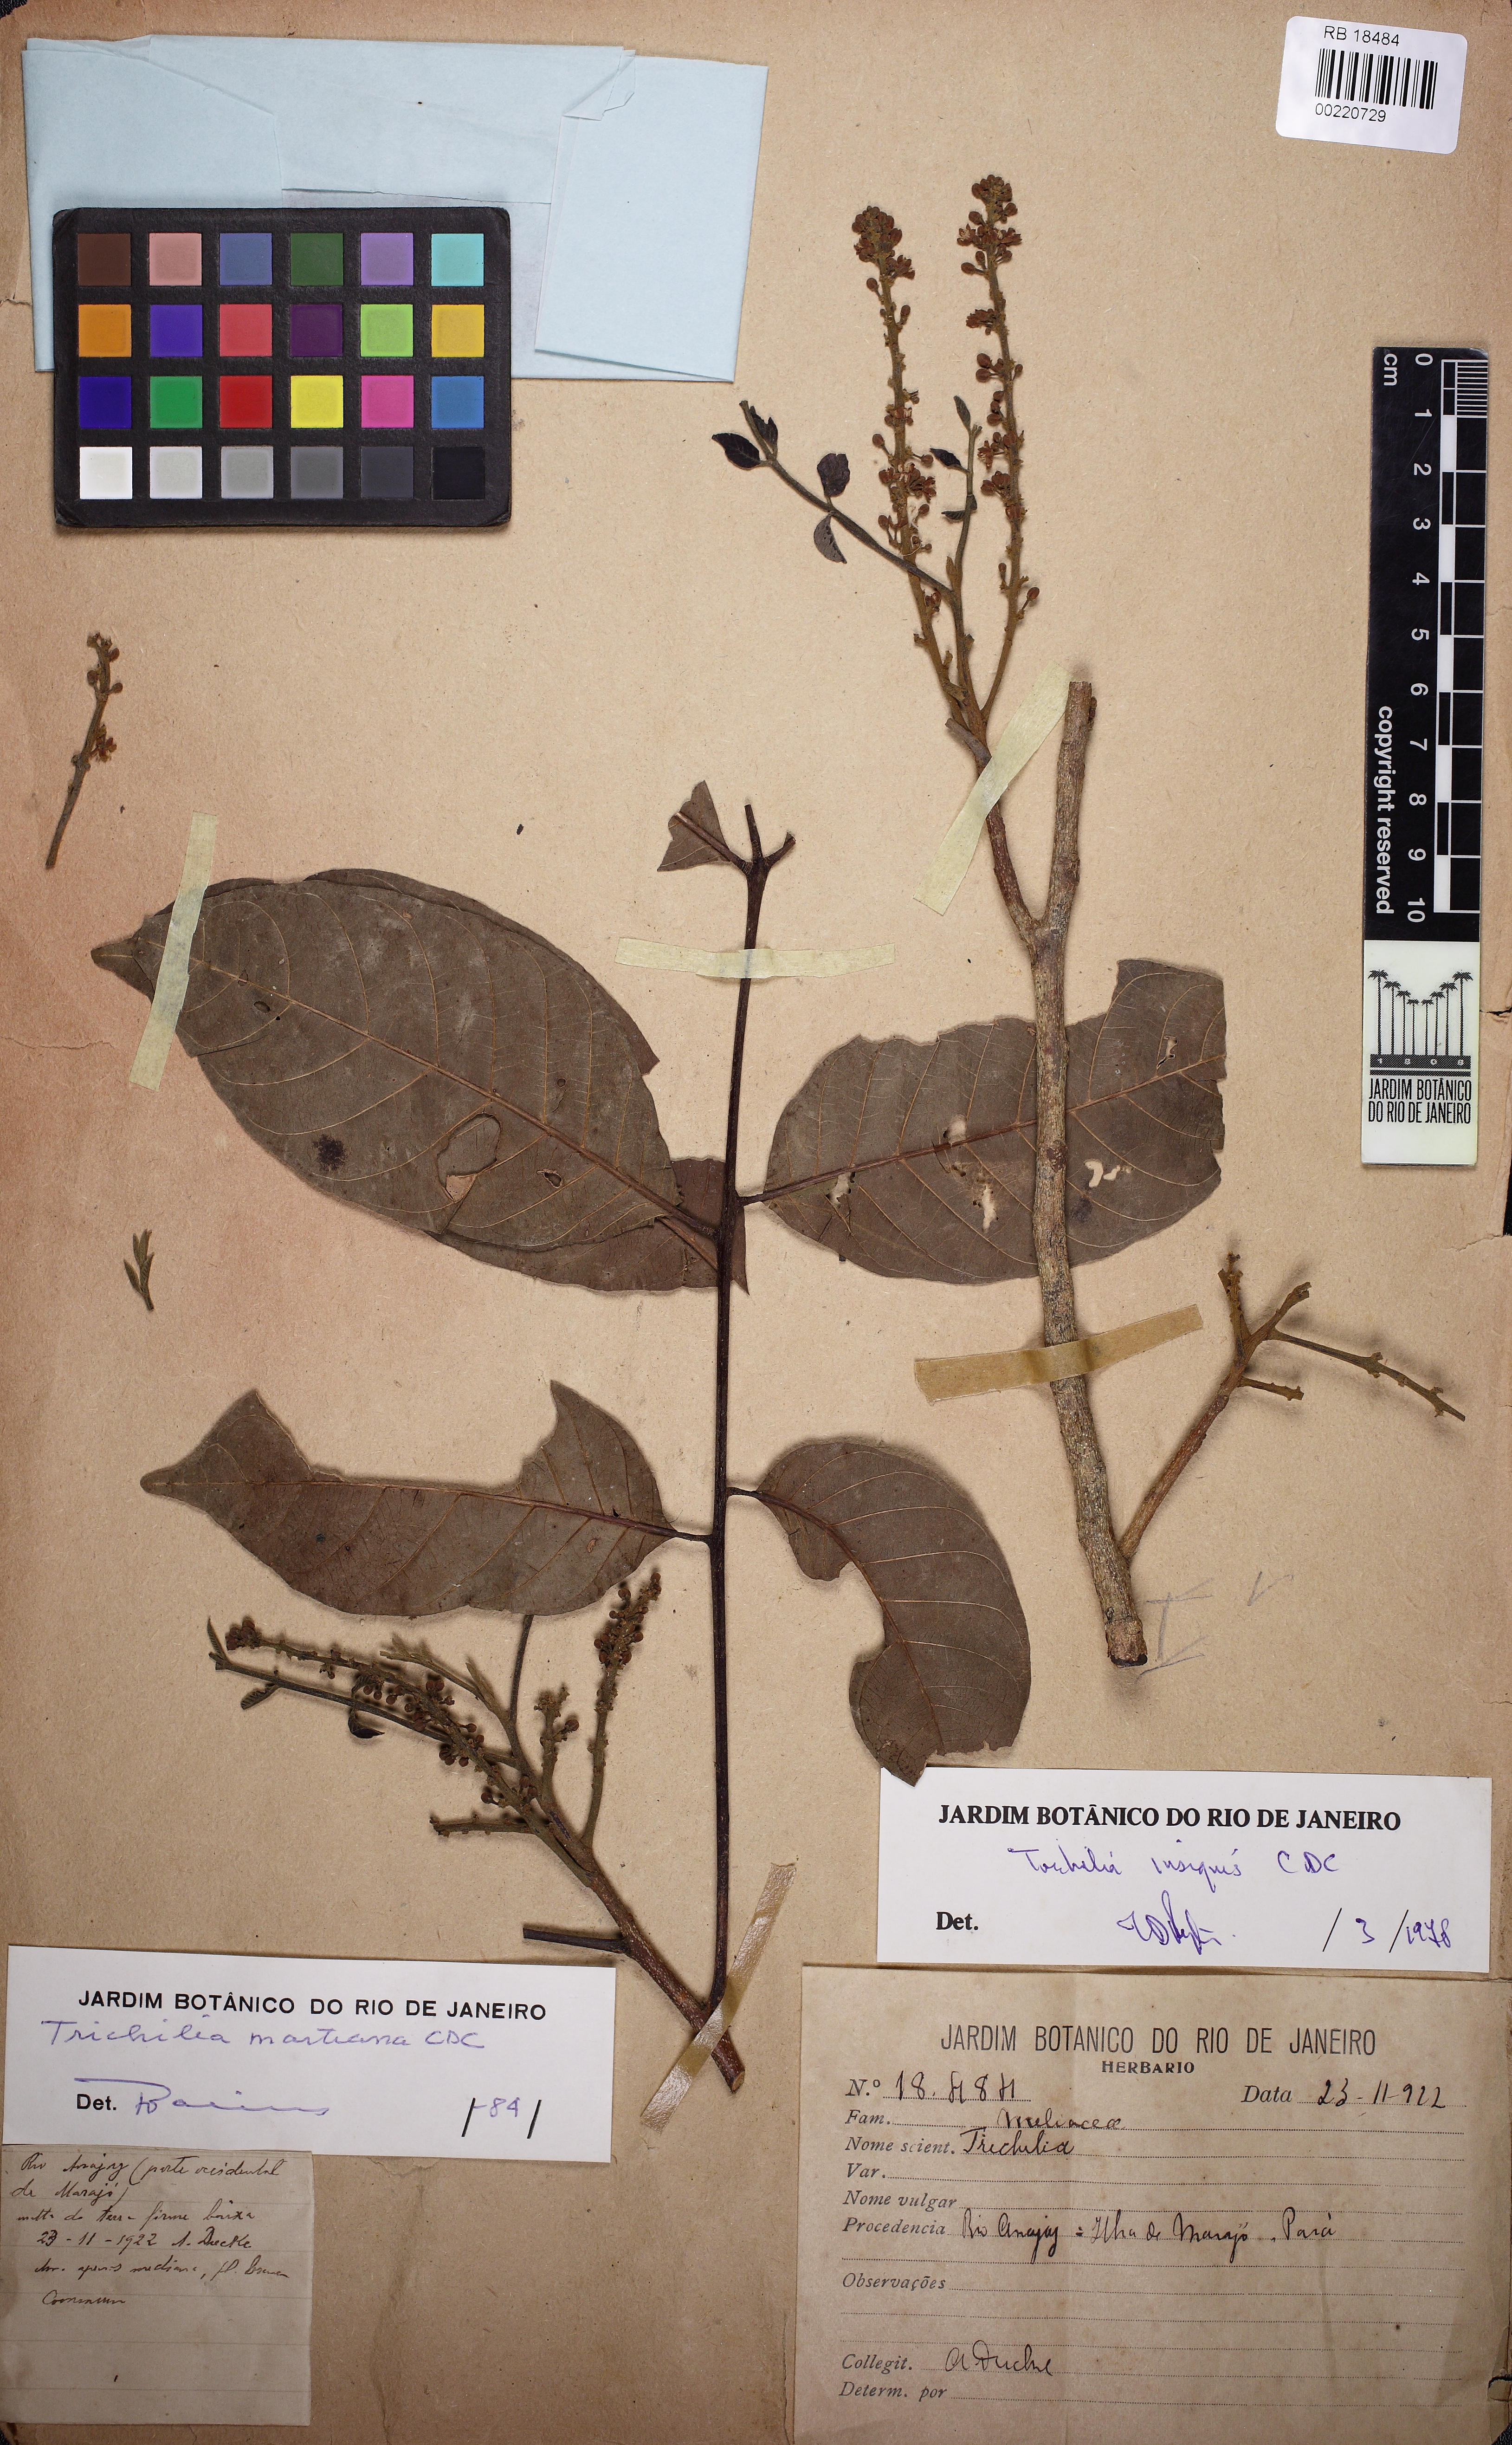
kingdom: Plantae
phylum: Tracheophyta
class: Magnoliopsida
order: Sapindales
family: Meliaceae
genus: Trichilia
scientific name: Trichilia martiana
